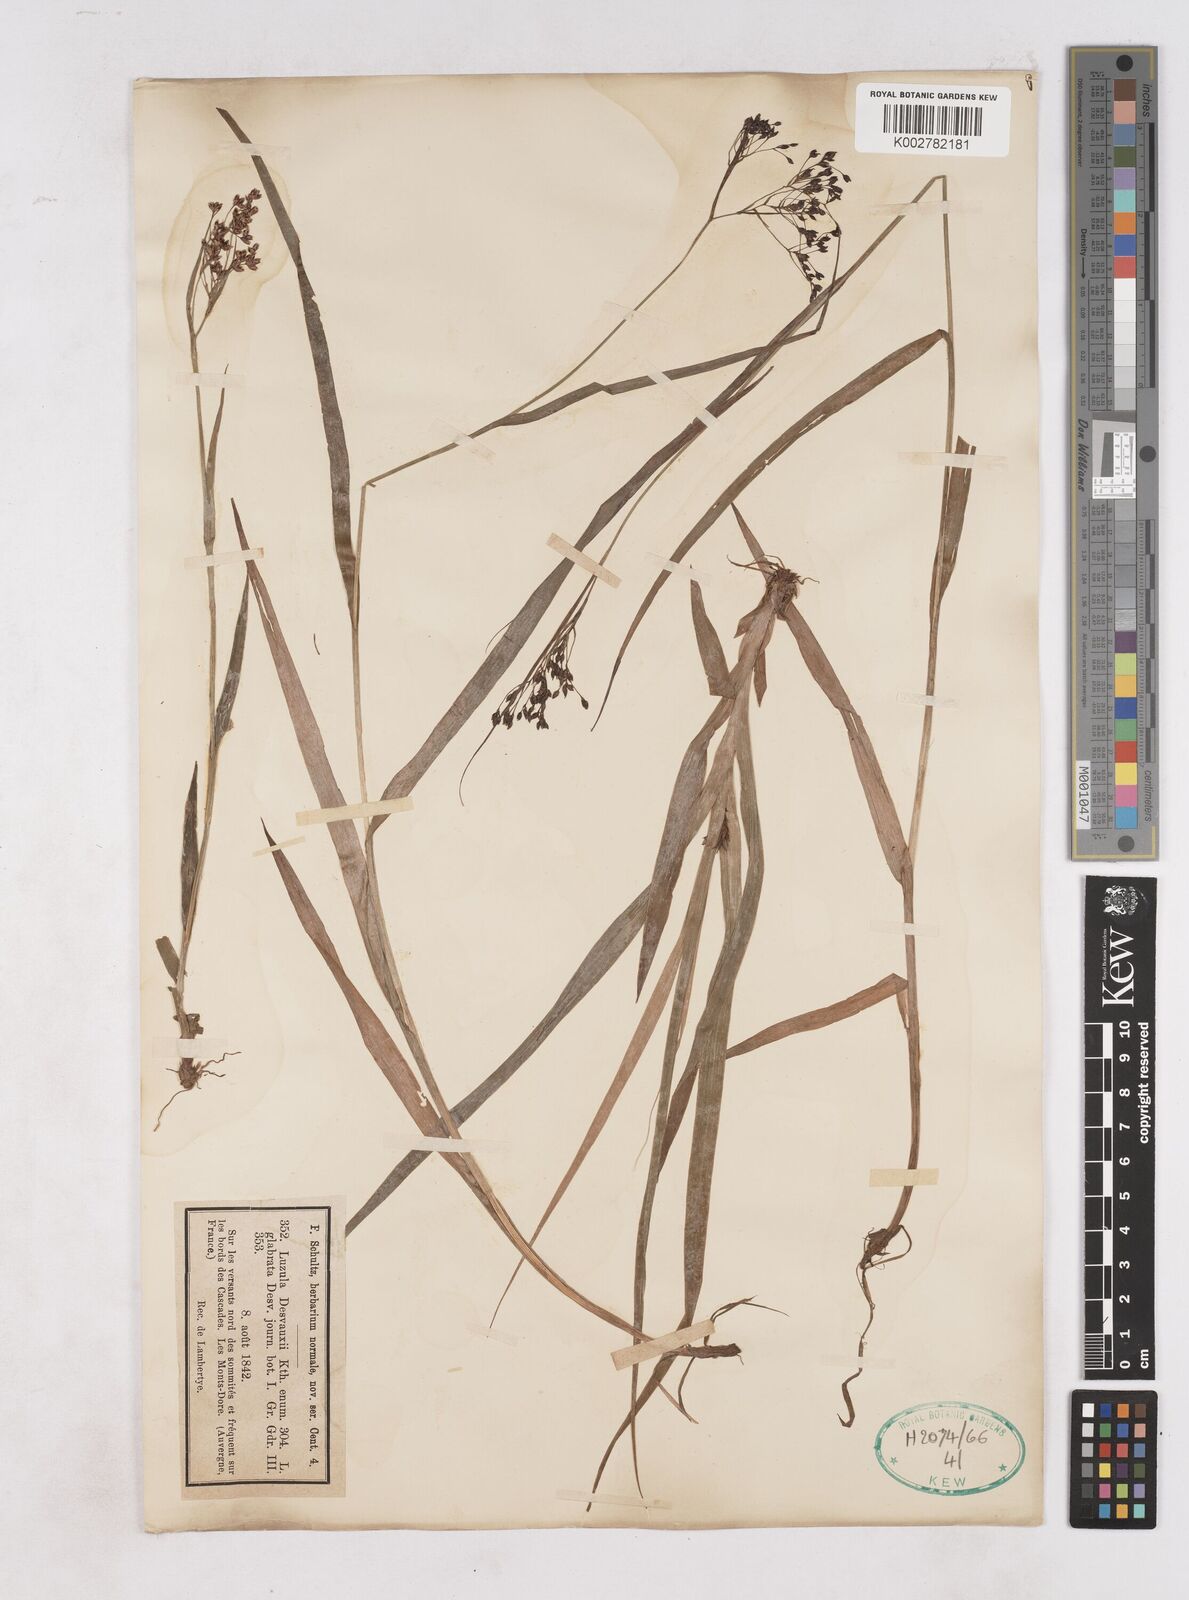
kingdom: Plantae
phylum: Tracheophyta
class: Liliopsida
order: Poales
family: Juncaceae
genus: Luzula
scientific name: Luzula glabrata
